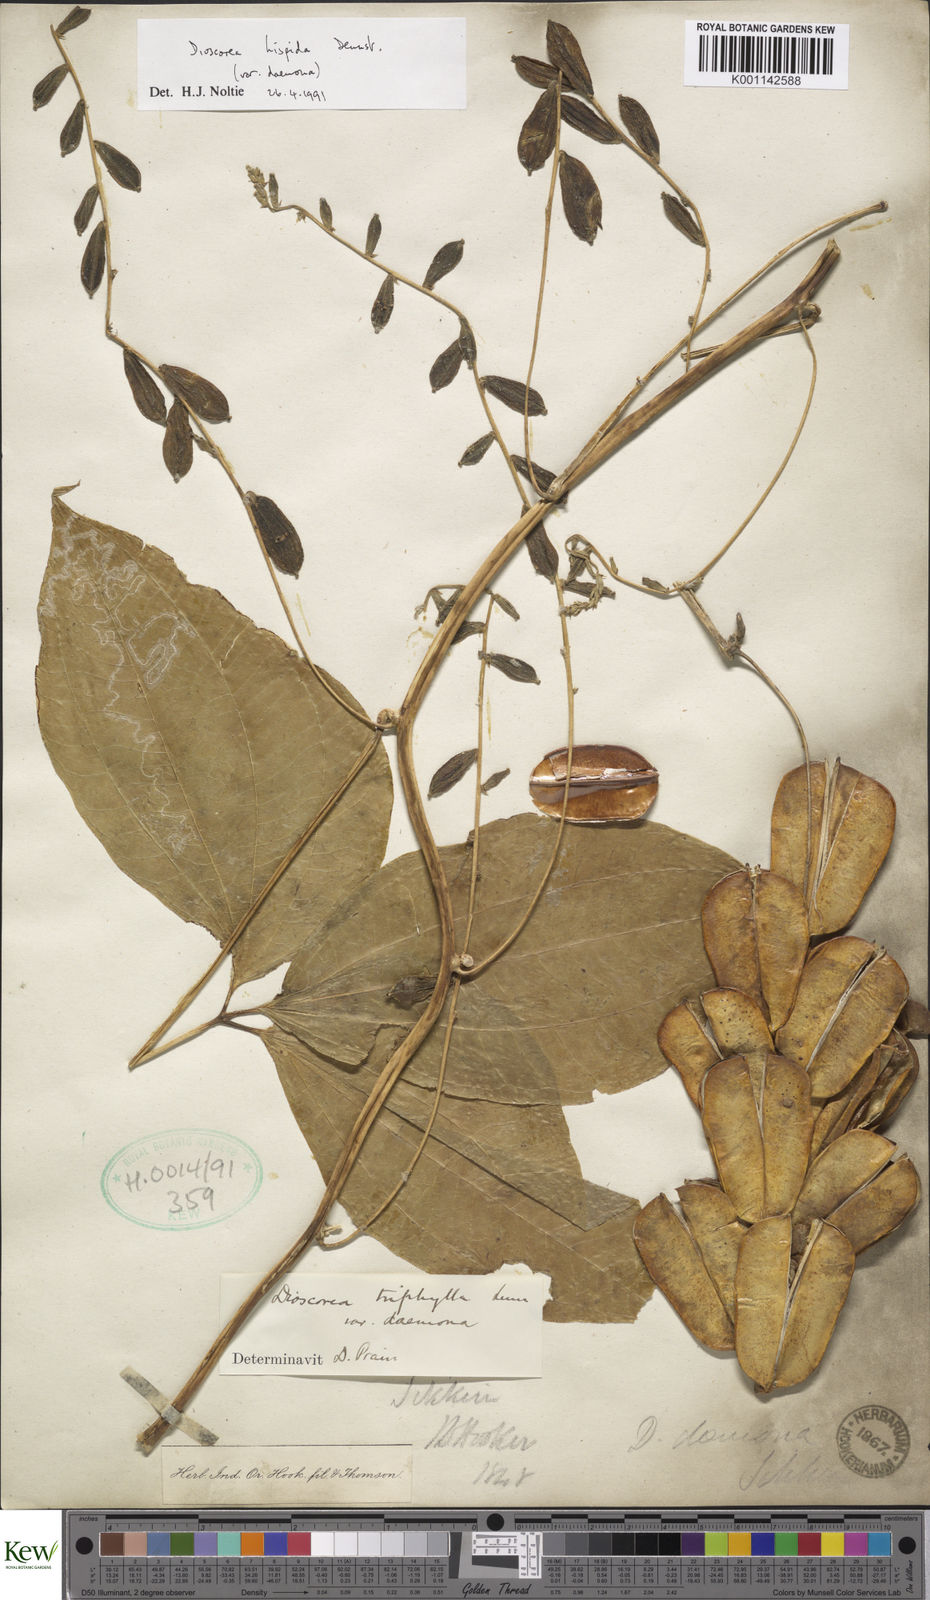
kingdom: Plantae
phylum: Tracheophyta
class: Liliopsida
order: Dioscoreales
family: Dioscoreaceae
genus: Dioscorea
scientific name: Dioscorea hispida
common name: Asiatic bitter yam
